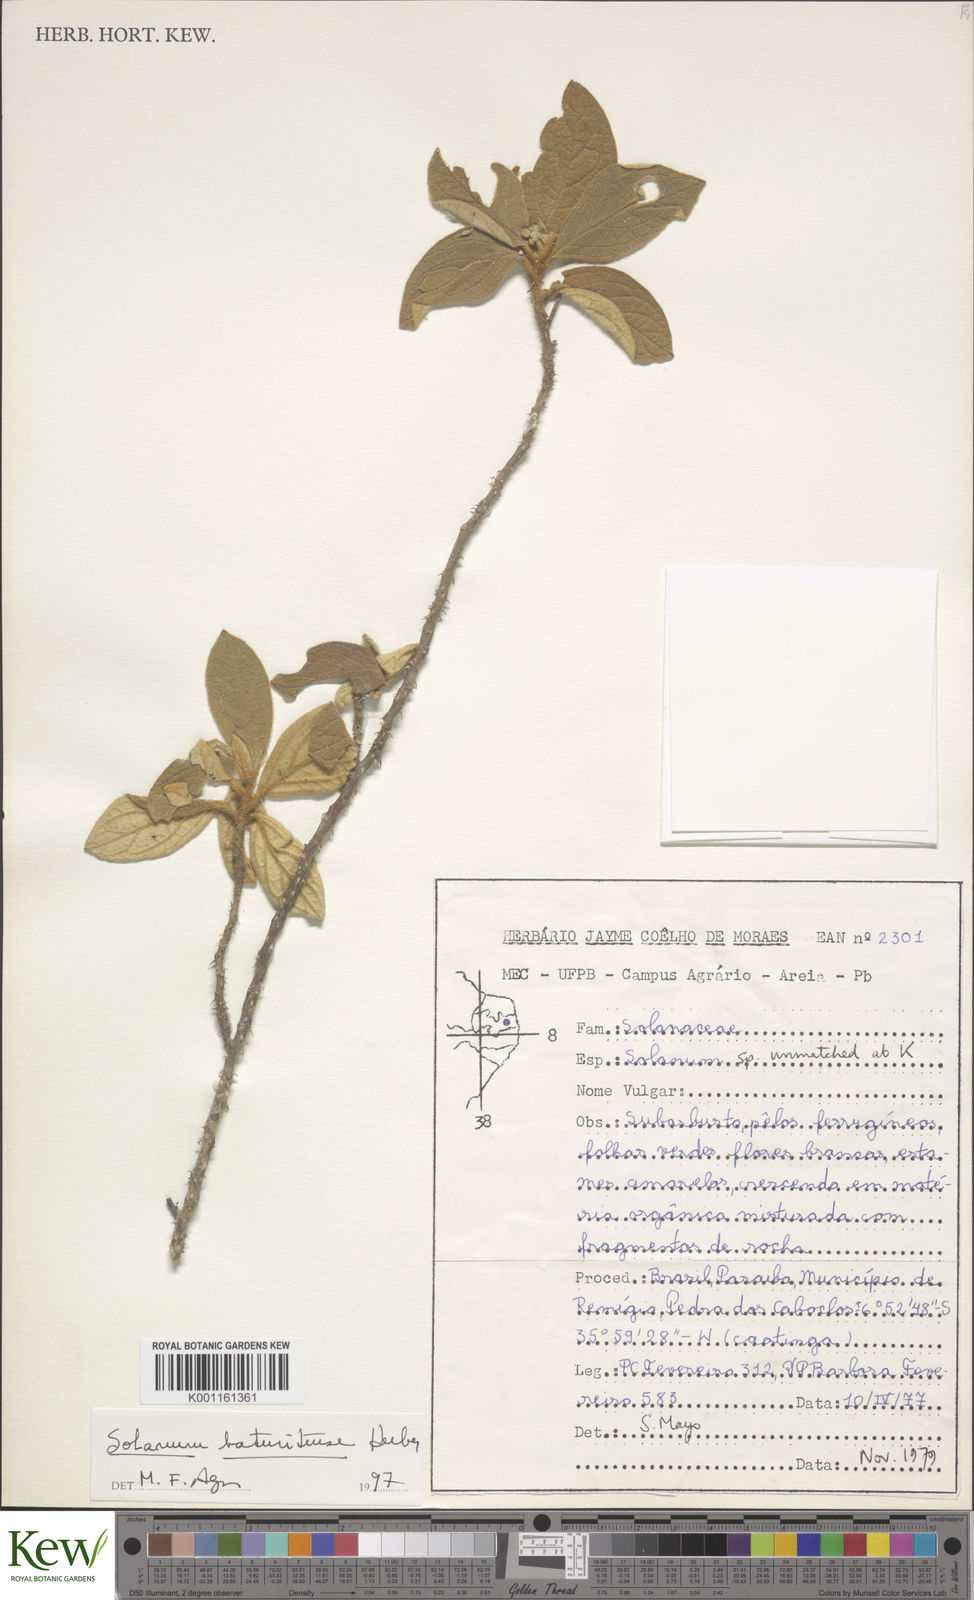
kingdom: Plantae
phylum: Tracheophyta
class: Magnoliopsida
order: Solanales
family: Solanaceae
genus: Solanum
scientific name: Solanum rhytidoandrum
